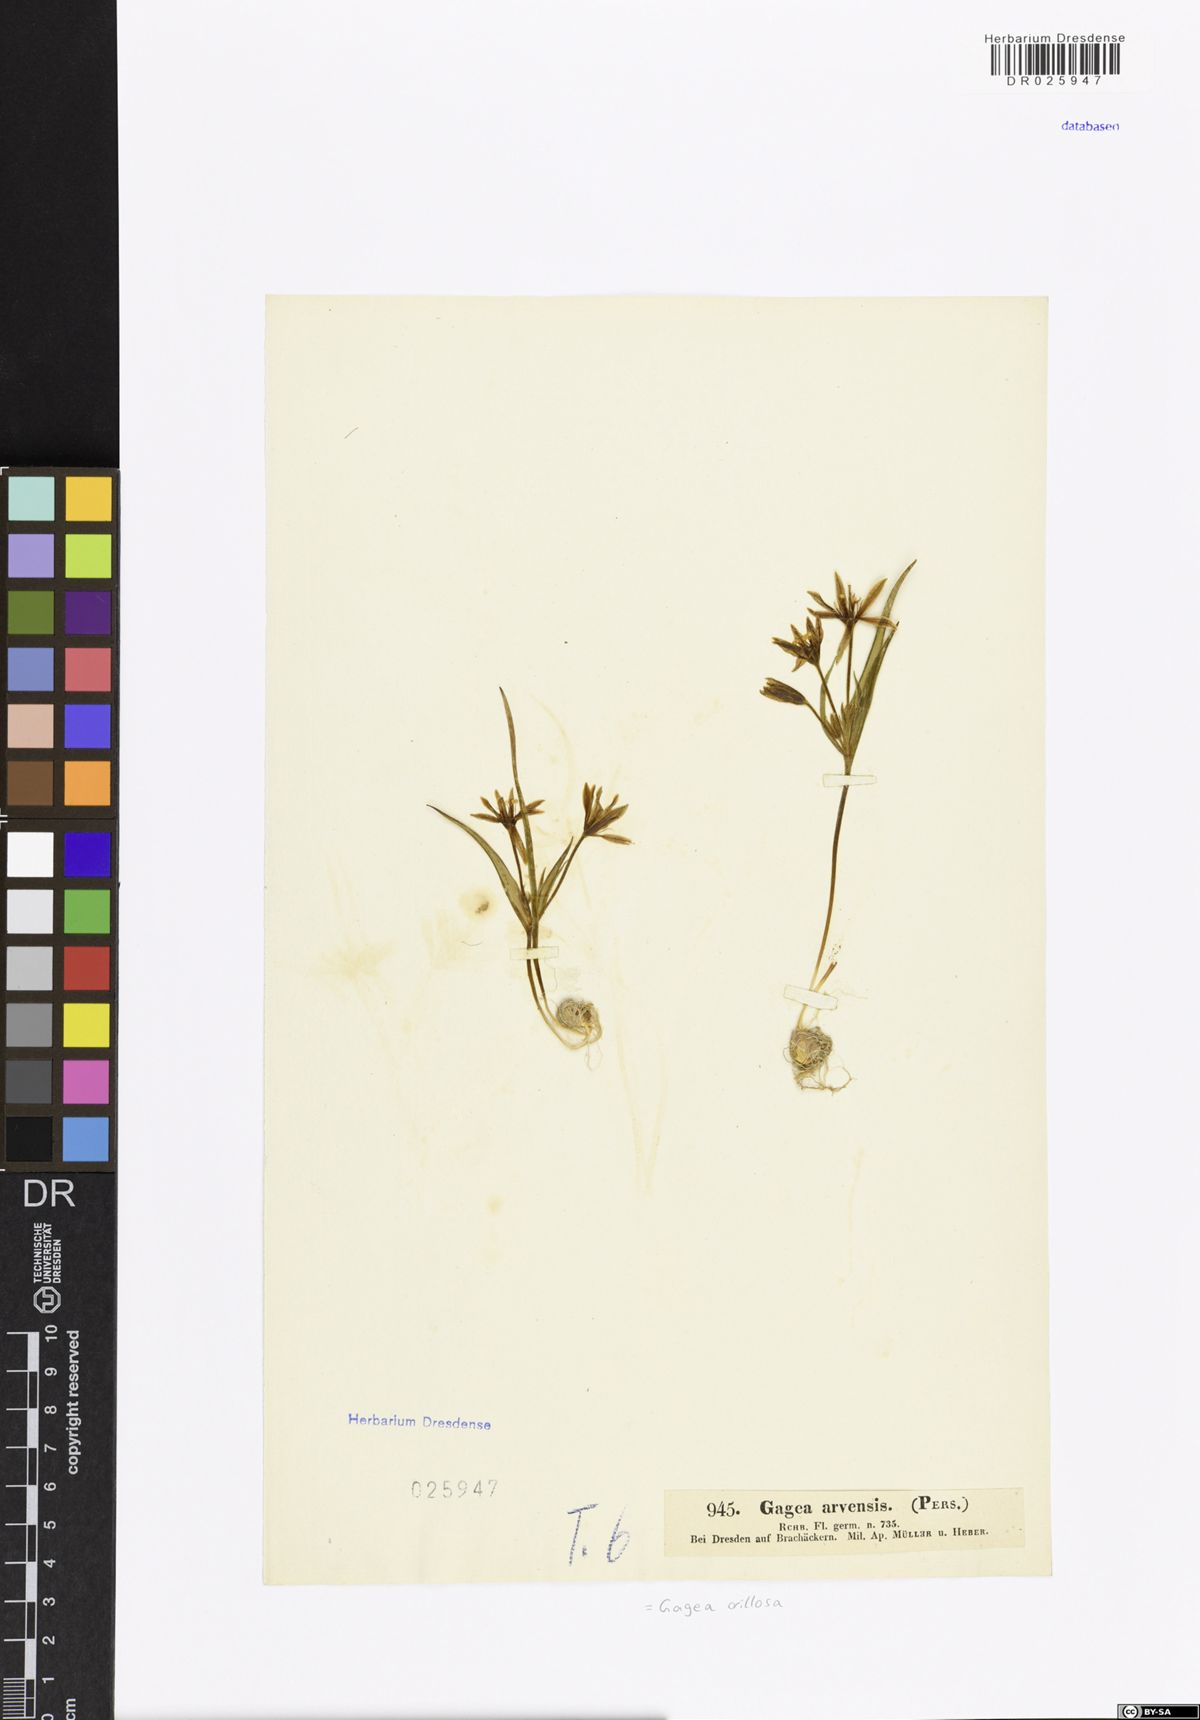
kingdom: Plantae
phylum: Tracheophyta
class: Liliopsida
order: Liliales
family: Liliaceae
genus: Gagea
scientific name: Gagea villosa
